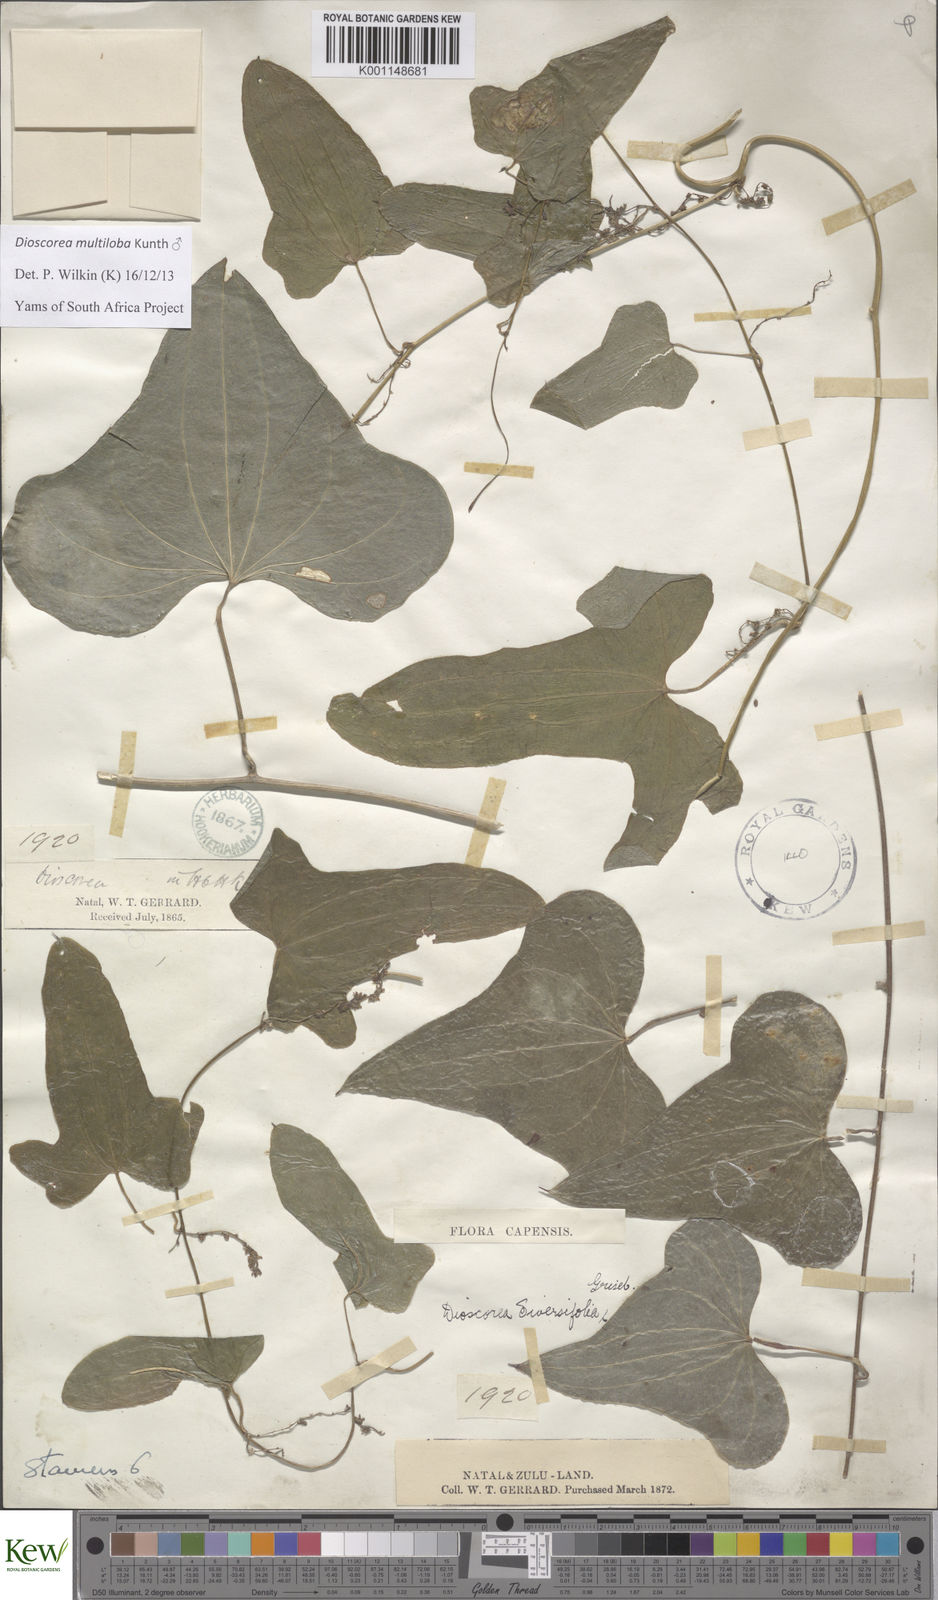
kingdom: Plantae
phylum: Tracheophyta
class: Liliopsida
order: Dioscoreales
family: Dioscoreaceae
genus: Dioscorea
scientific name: Dioscorea multiloba
